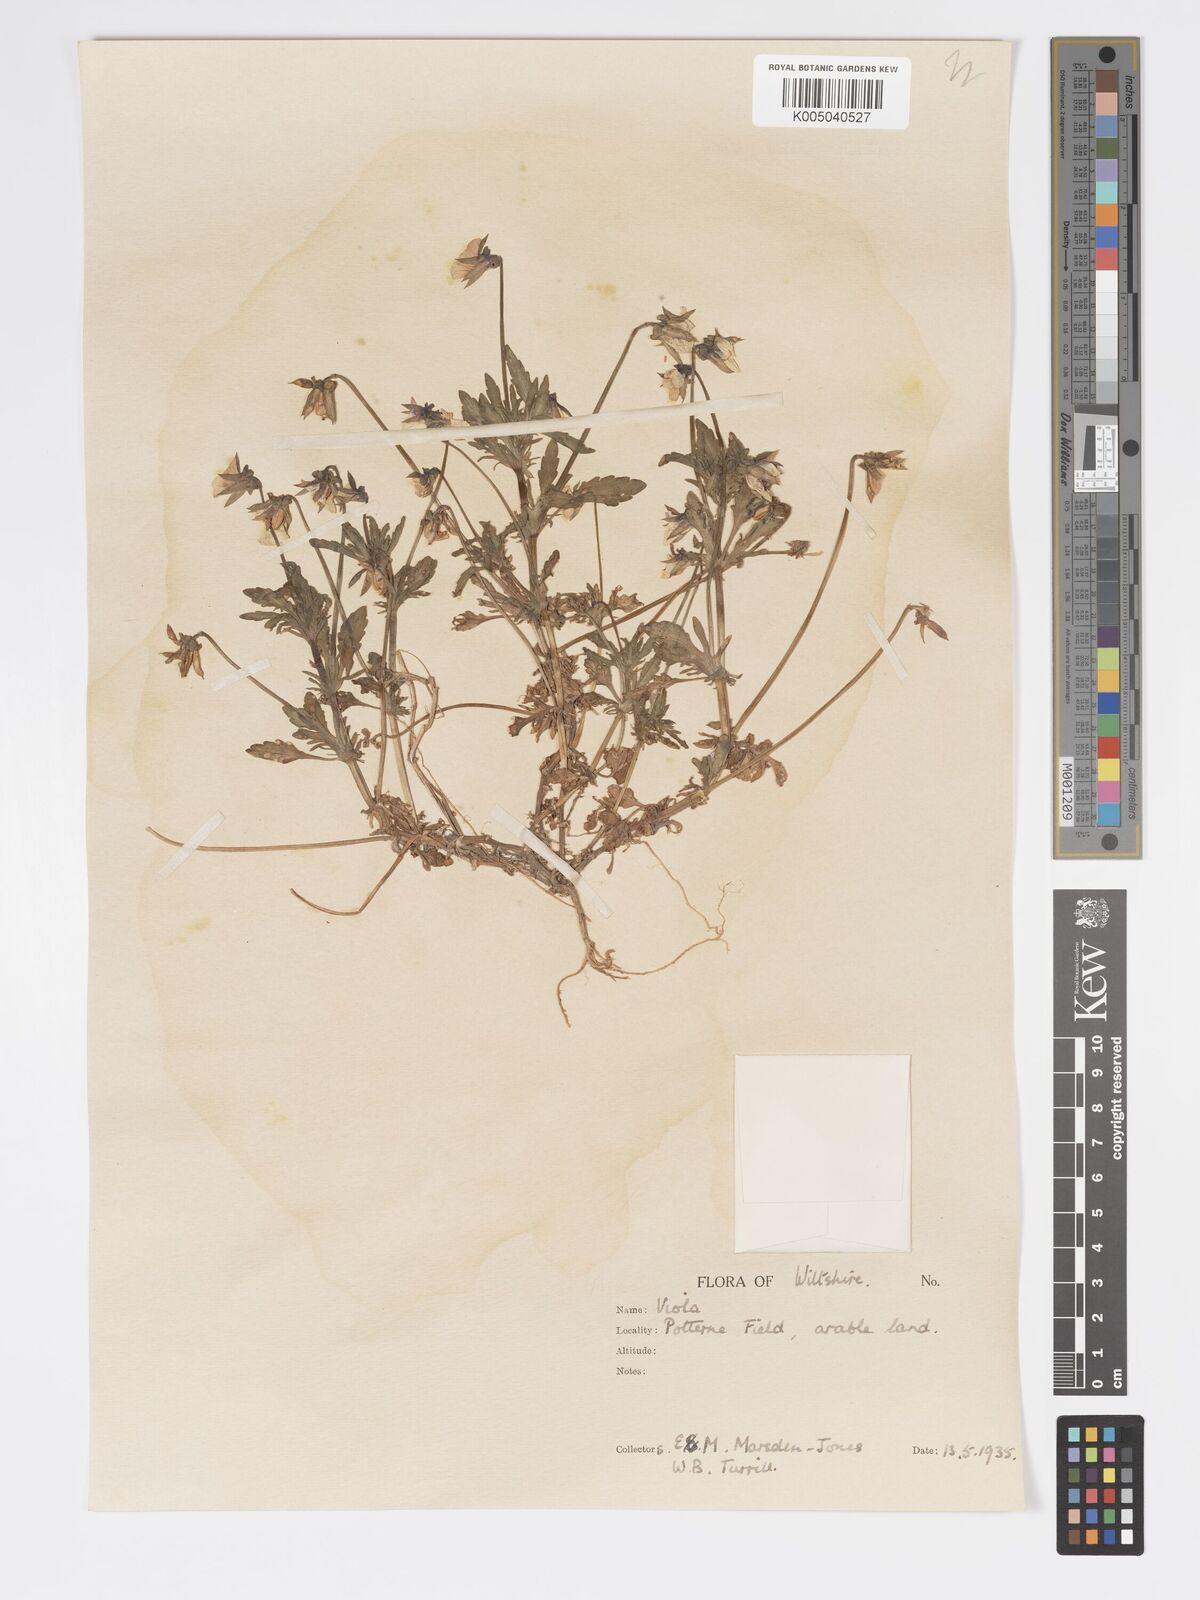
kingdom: Plantae
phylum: Tracheophyta
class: Magnoliopsida
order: Malpighiales
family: Violaceae
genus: Viola
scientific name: Viola
